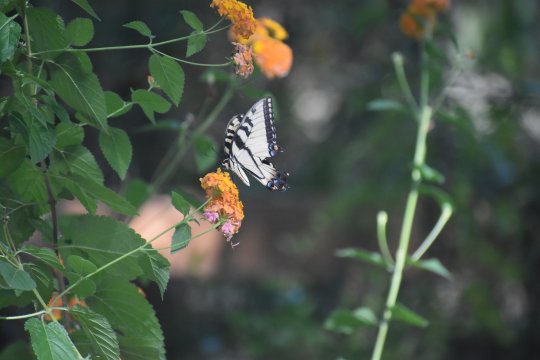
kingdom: Animalia
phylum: Arthropoda
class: Insecta
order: Lepidoptera
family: Papilionidae
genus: Pterourus
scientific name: Pterourus glaucus
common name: Eastern Tiger Swallowtail
